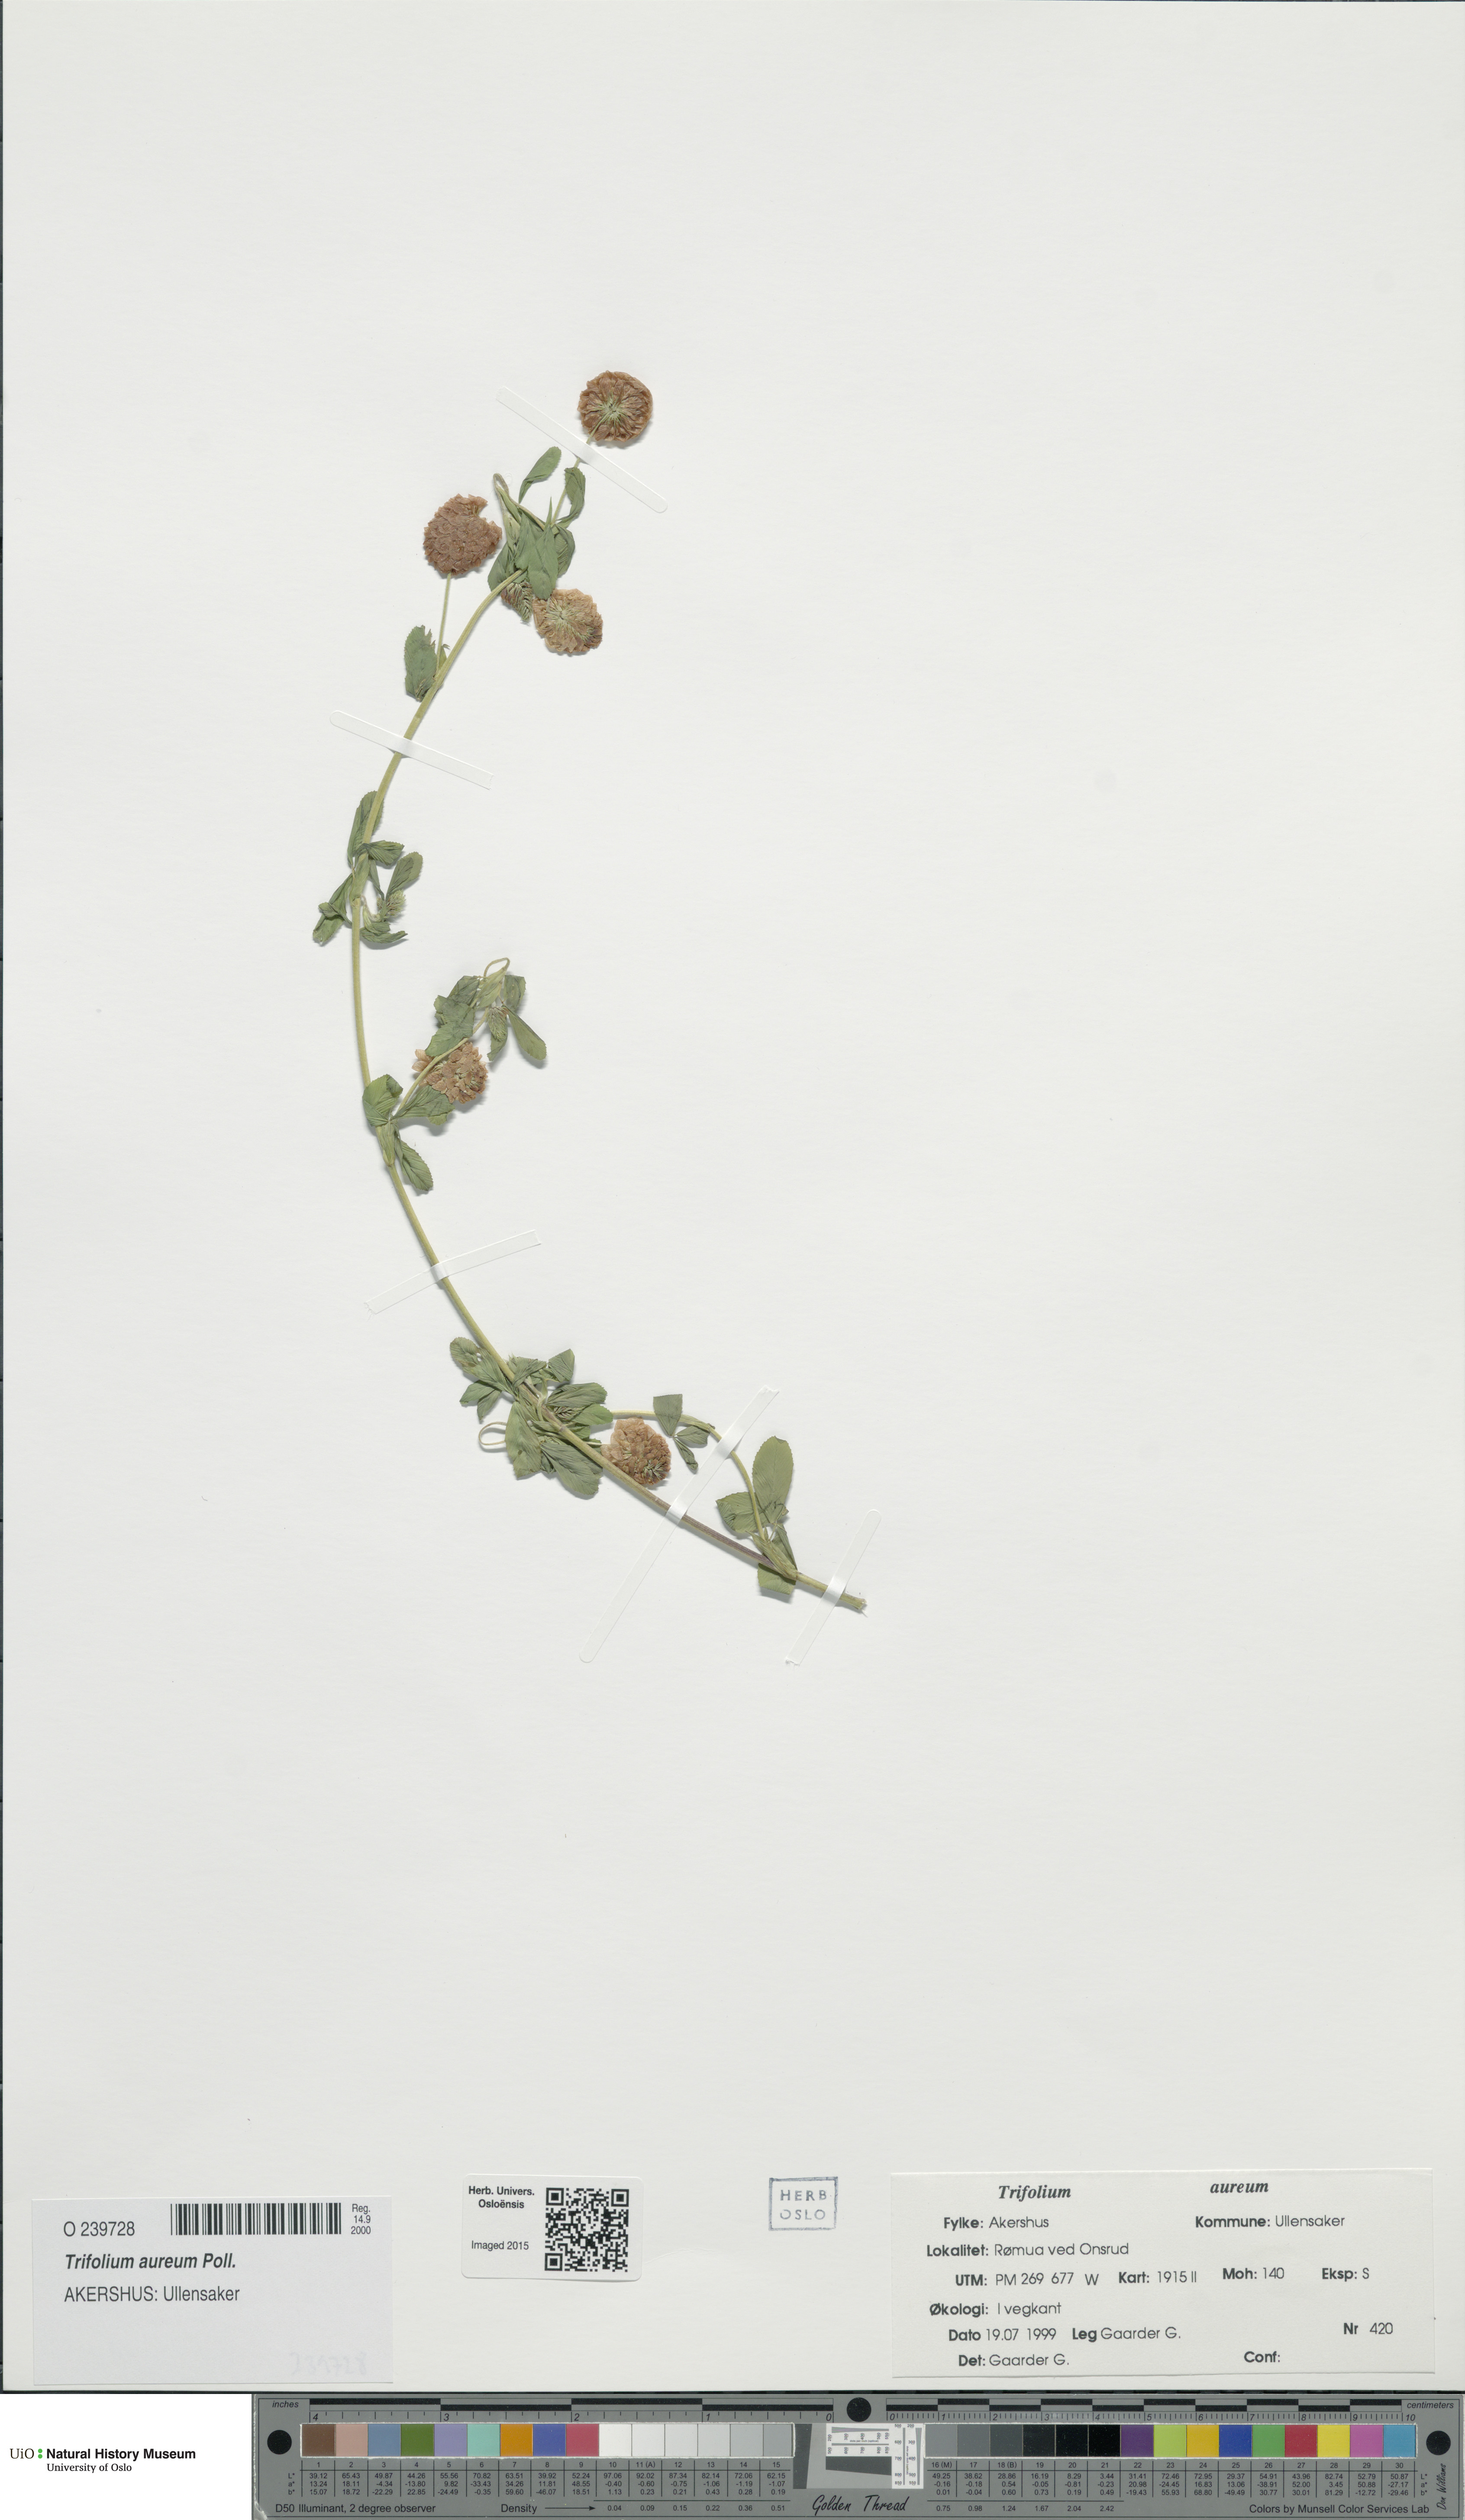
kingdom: Plantae
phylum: Tracheophyta
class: Magnoliopsida
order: Fabales
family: Fabaceae
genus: Trifolium
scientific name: Trifolium aureum
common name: Golden clover
